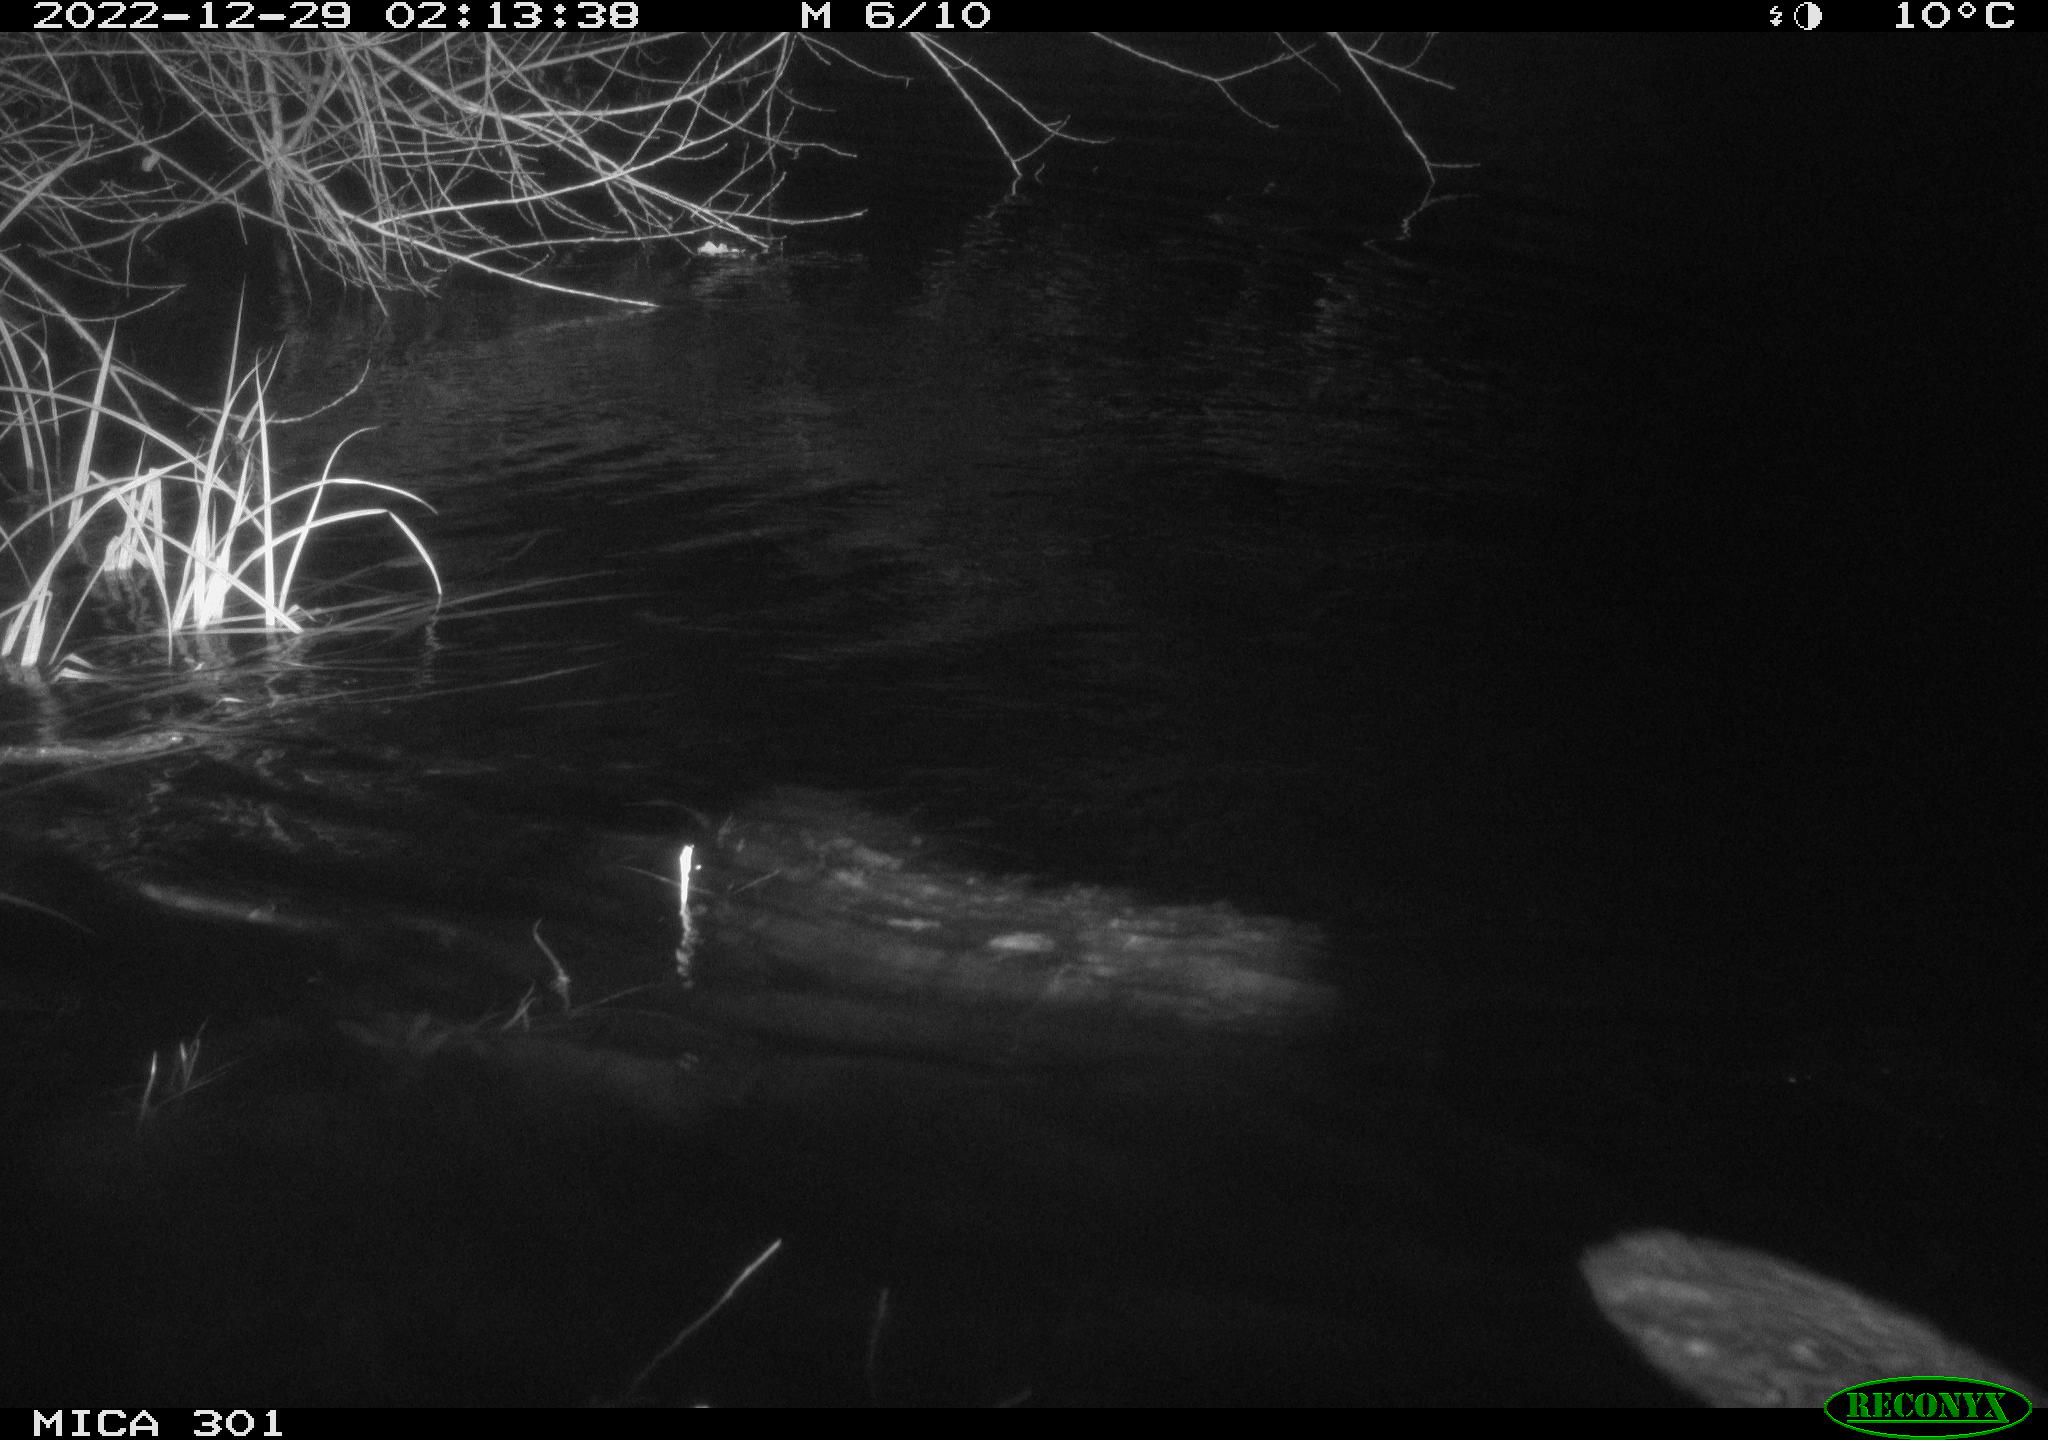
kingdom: Animalia
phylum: Chordata
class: Mammalia
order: Rodentia
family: Castoridae
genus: Castor
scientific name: Castor fiber
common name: Eurasian beaver
